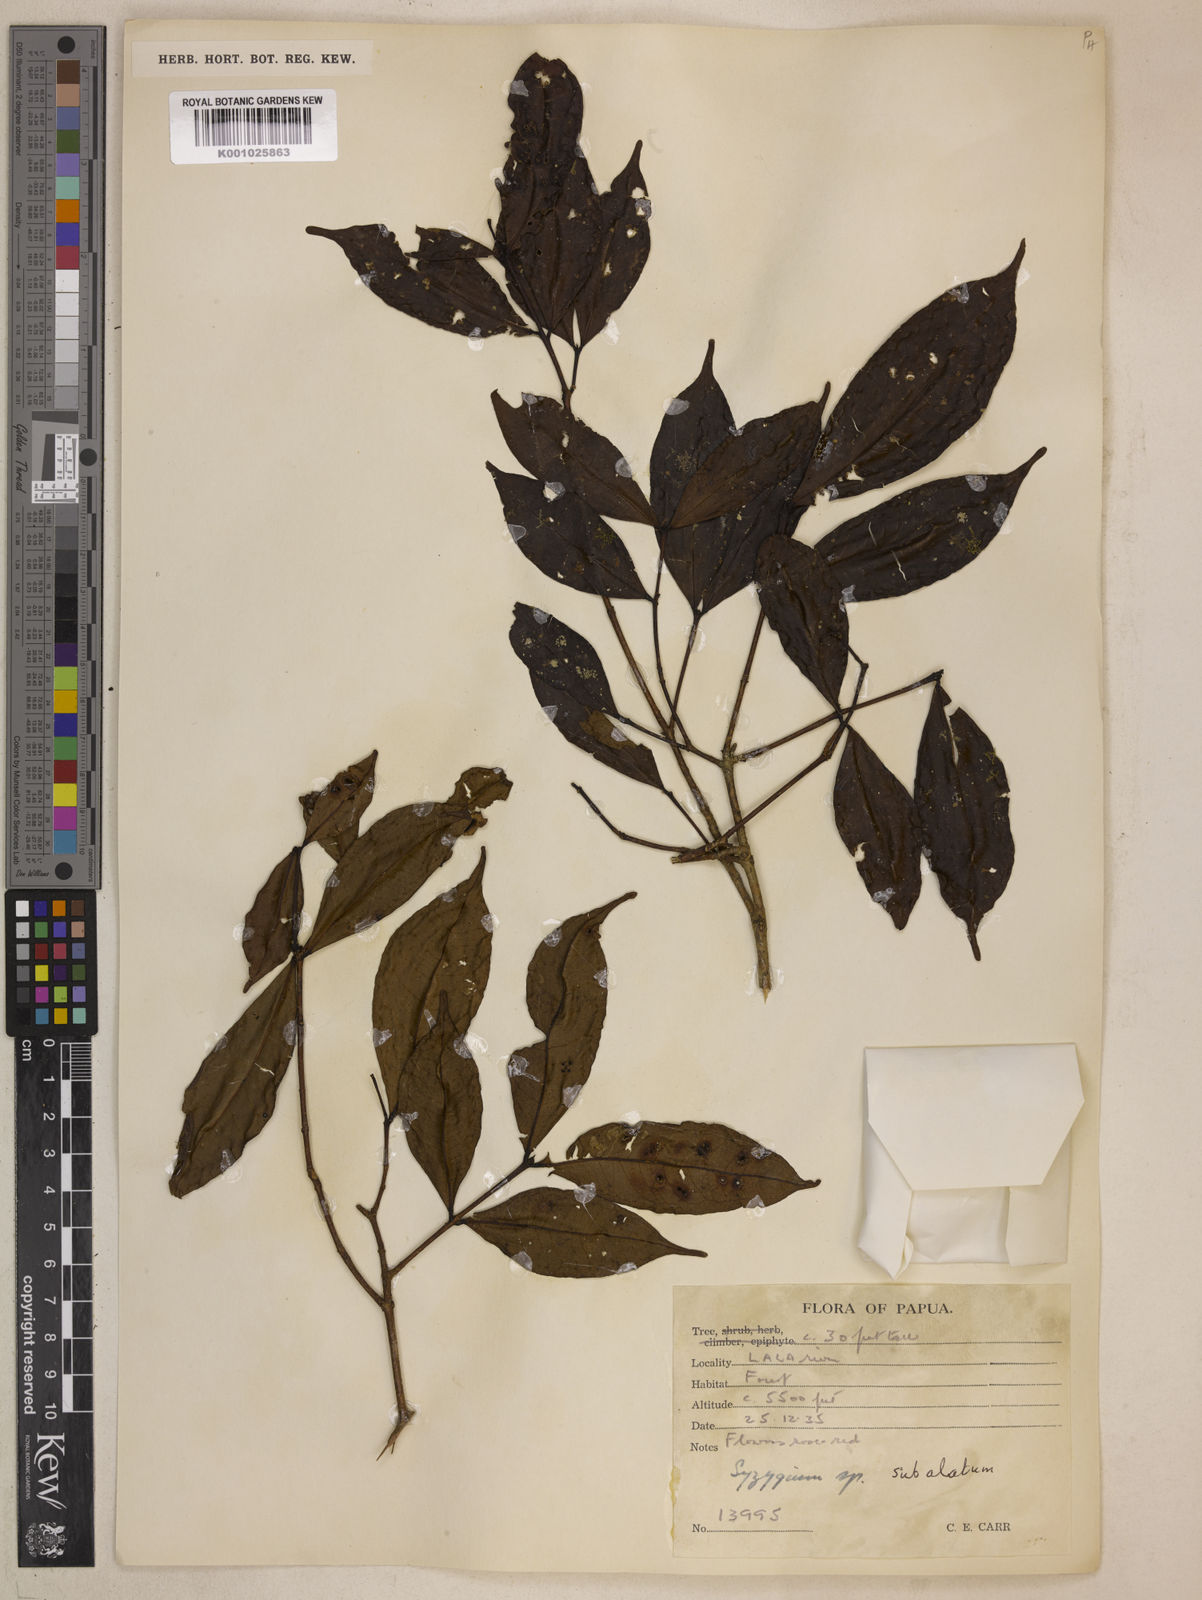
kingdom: Plantae
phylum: Tracheophyta
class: Magnoliopsida
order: Myrtales
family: Myrtaceae
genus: Syzygium
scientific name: Syzygium subalatum
